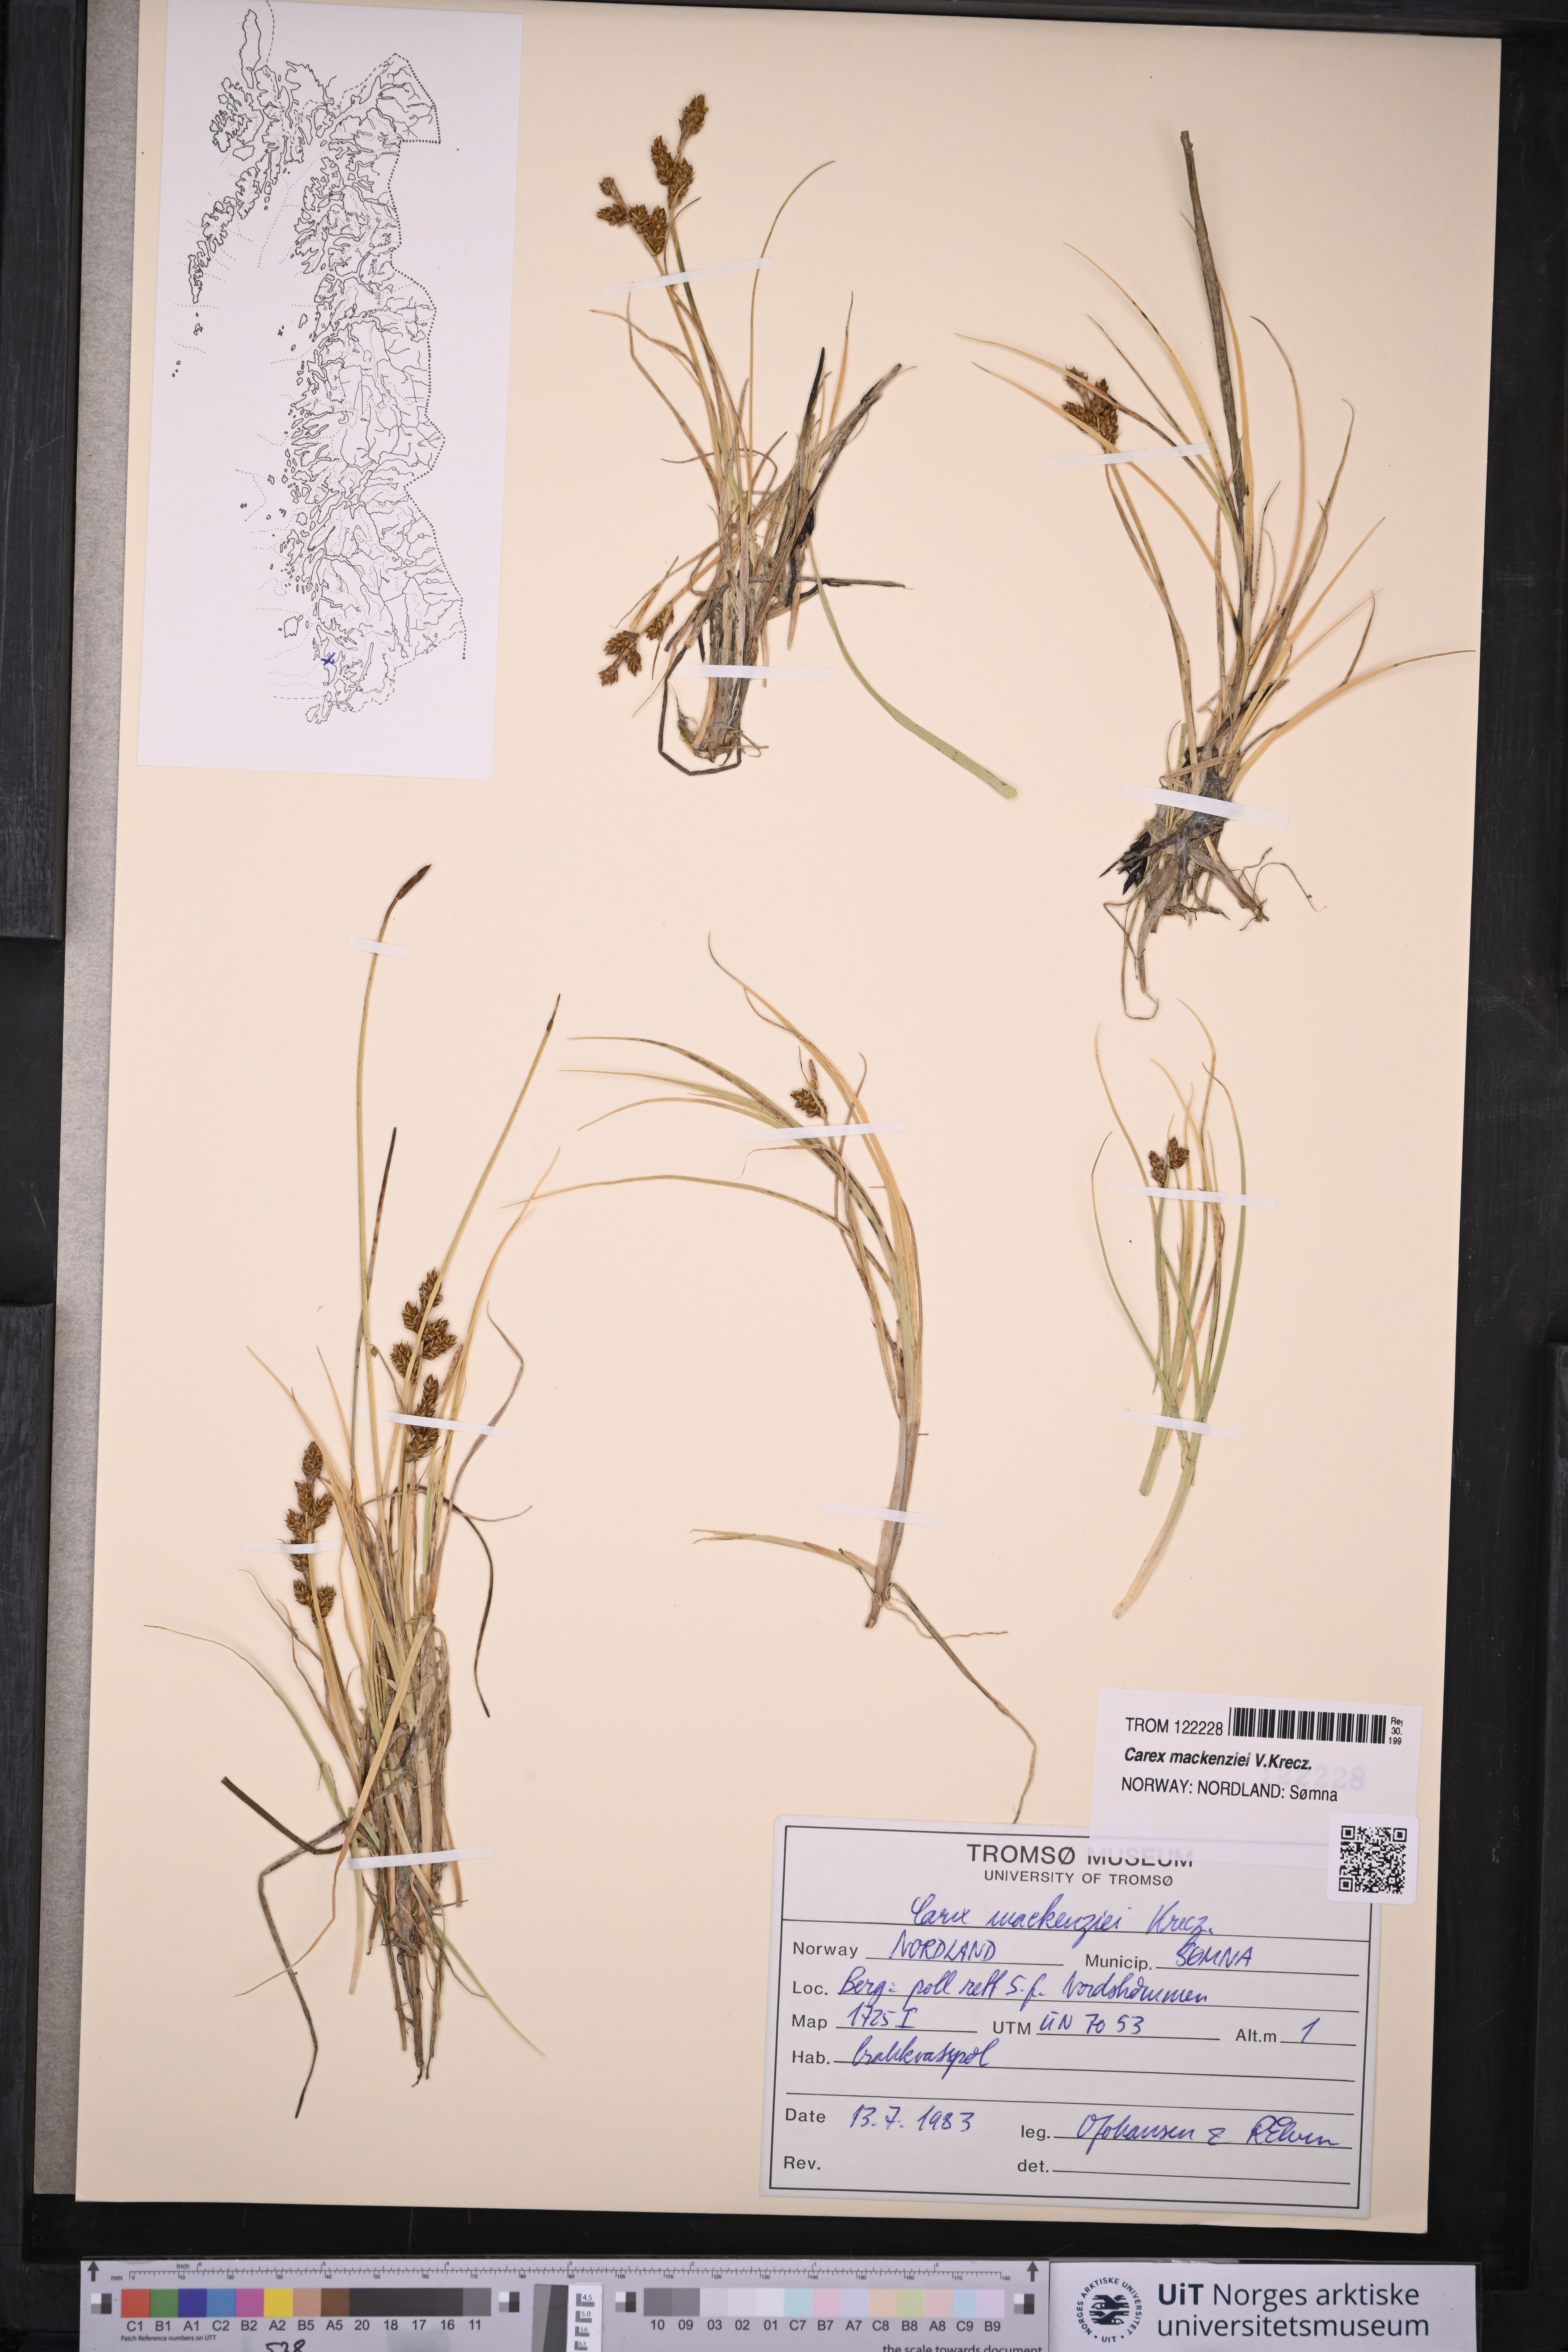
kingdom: Plantae
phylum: Tracheophyta
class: Liliopsida
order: Poales
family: Cyperaceae
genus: Carex
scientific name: Carex mackenziei
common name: Mackenzie's sedge
